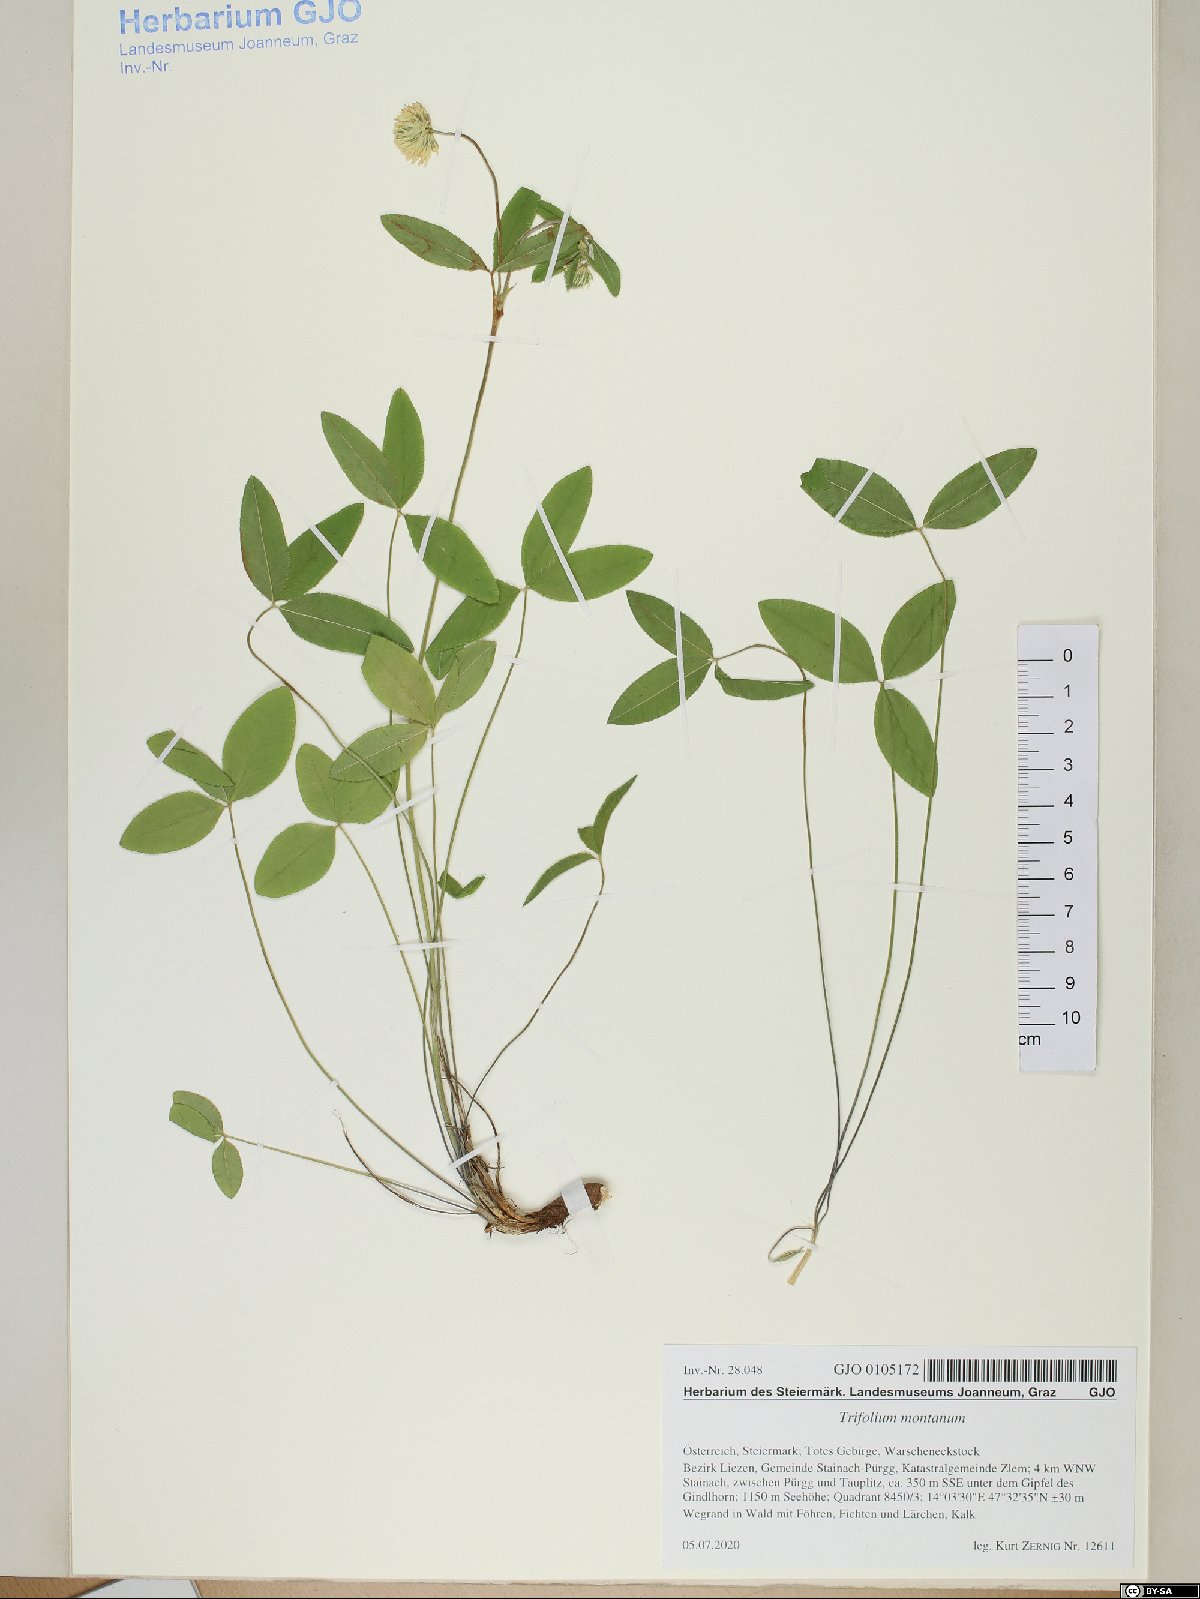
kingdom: Plantae
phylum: Tracheophyta
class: Magnoliopsida
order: Fabales
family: Fabaceae
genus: Trifolium
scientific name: Trifolium montanum
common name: Mountain clover
